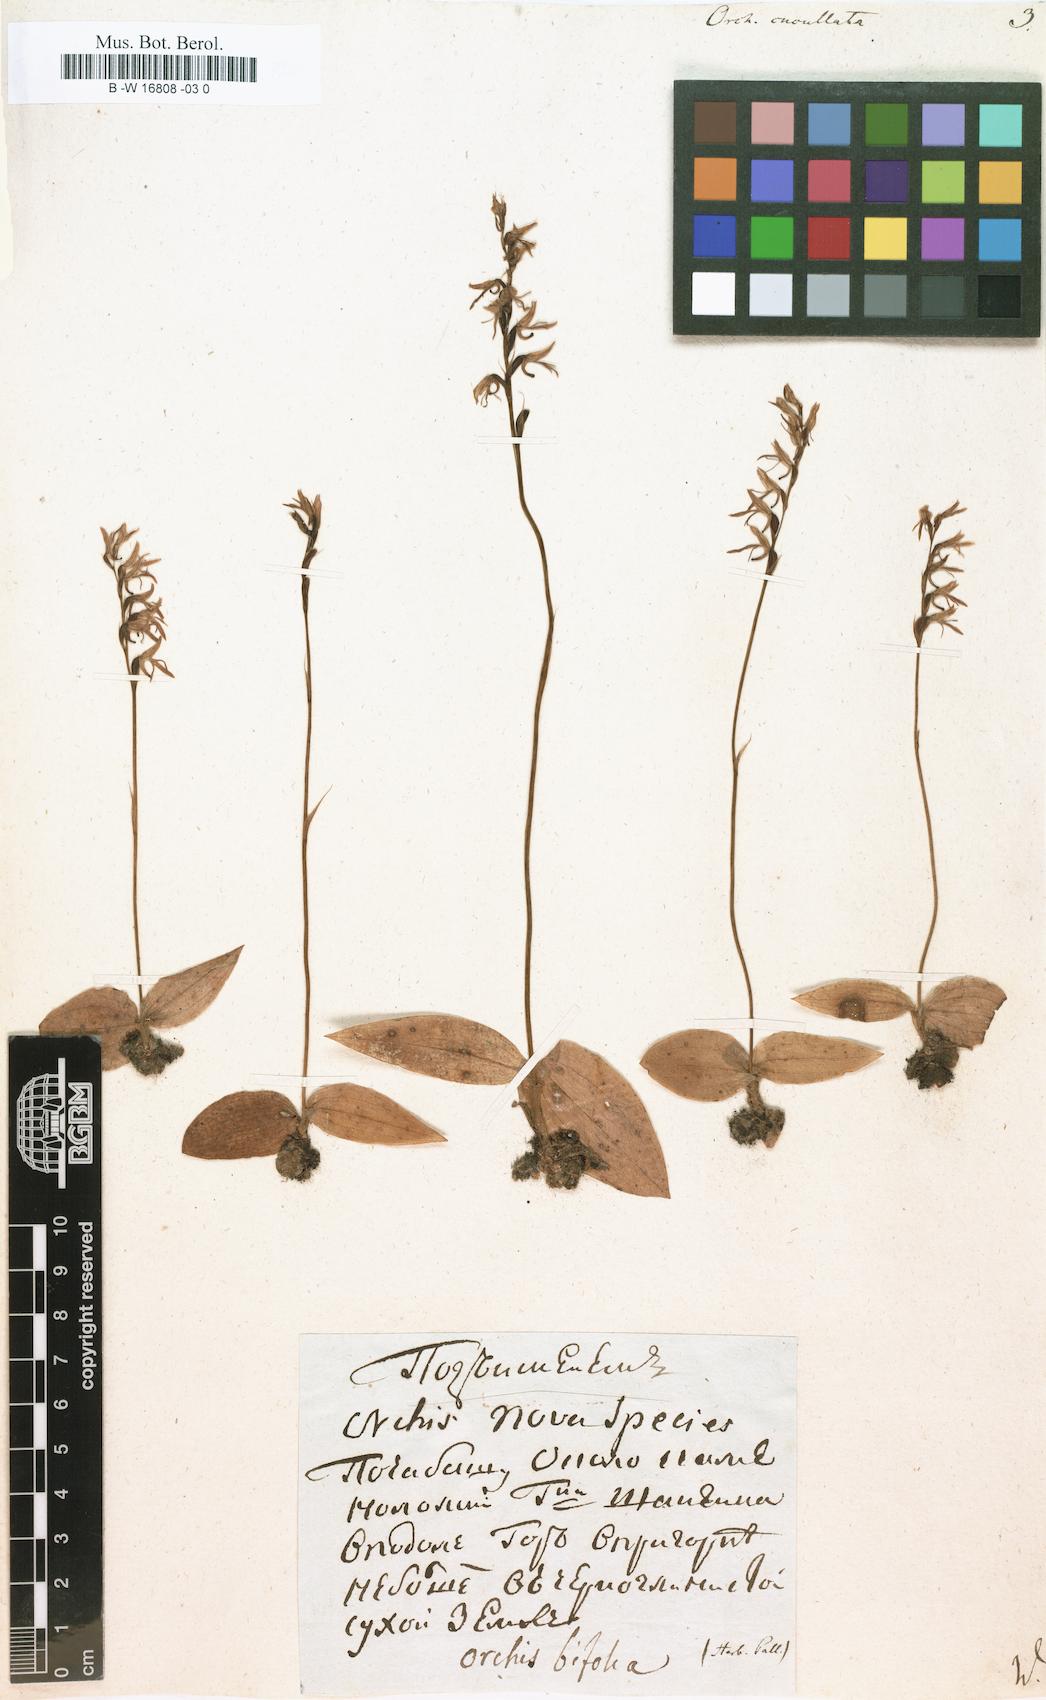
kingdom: Plantae
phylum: Tracheophyta
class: Liliopsida
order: Asparagales
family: Orchidaceae
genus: Hemipilia
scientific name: Hemipilia cucullata
